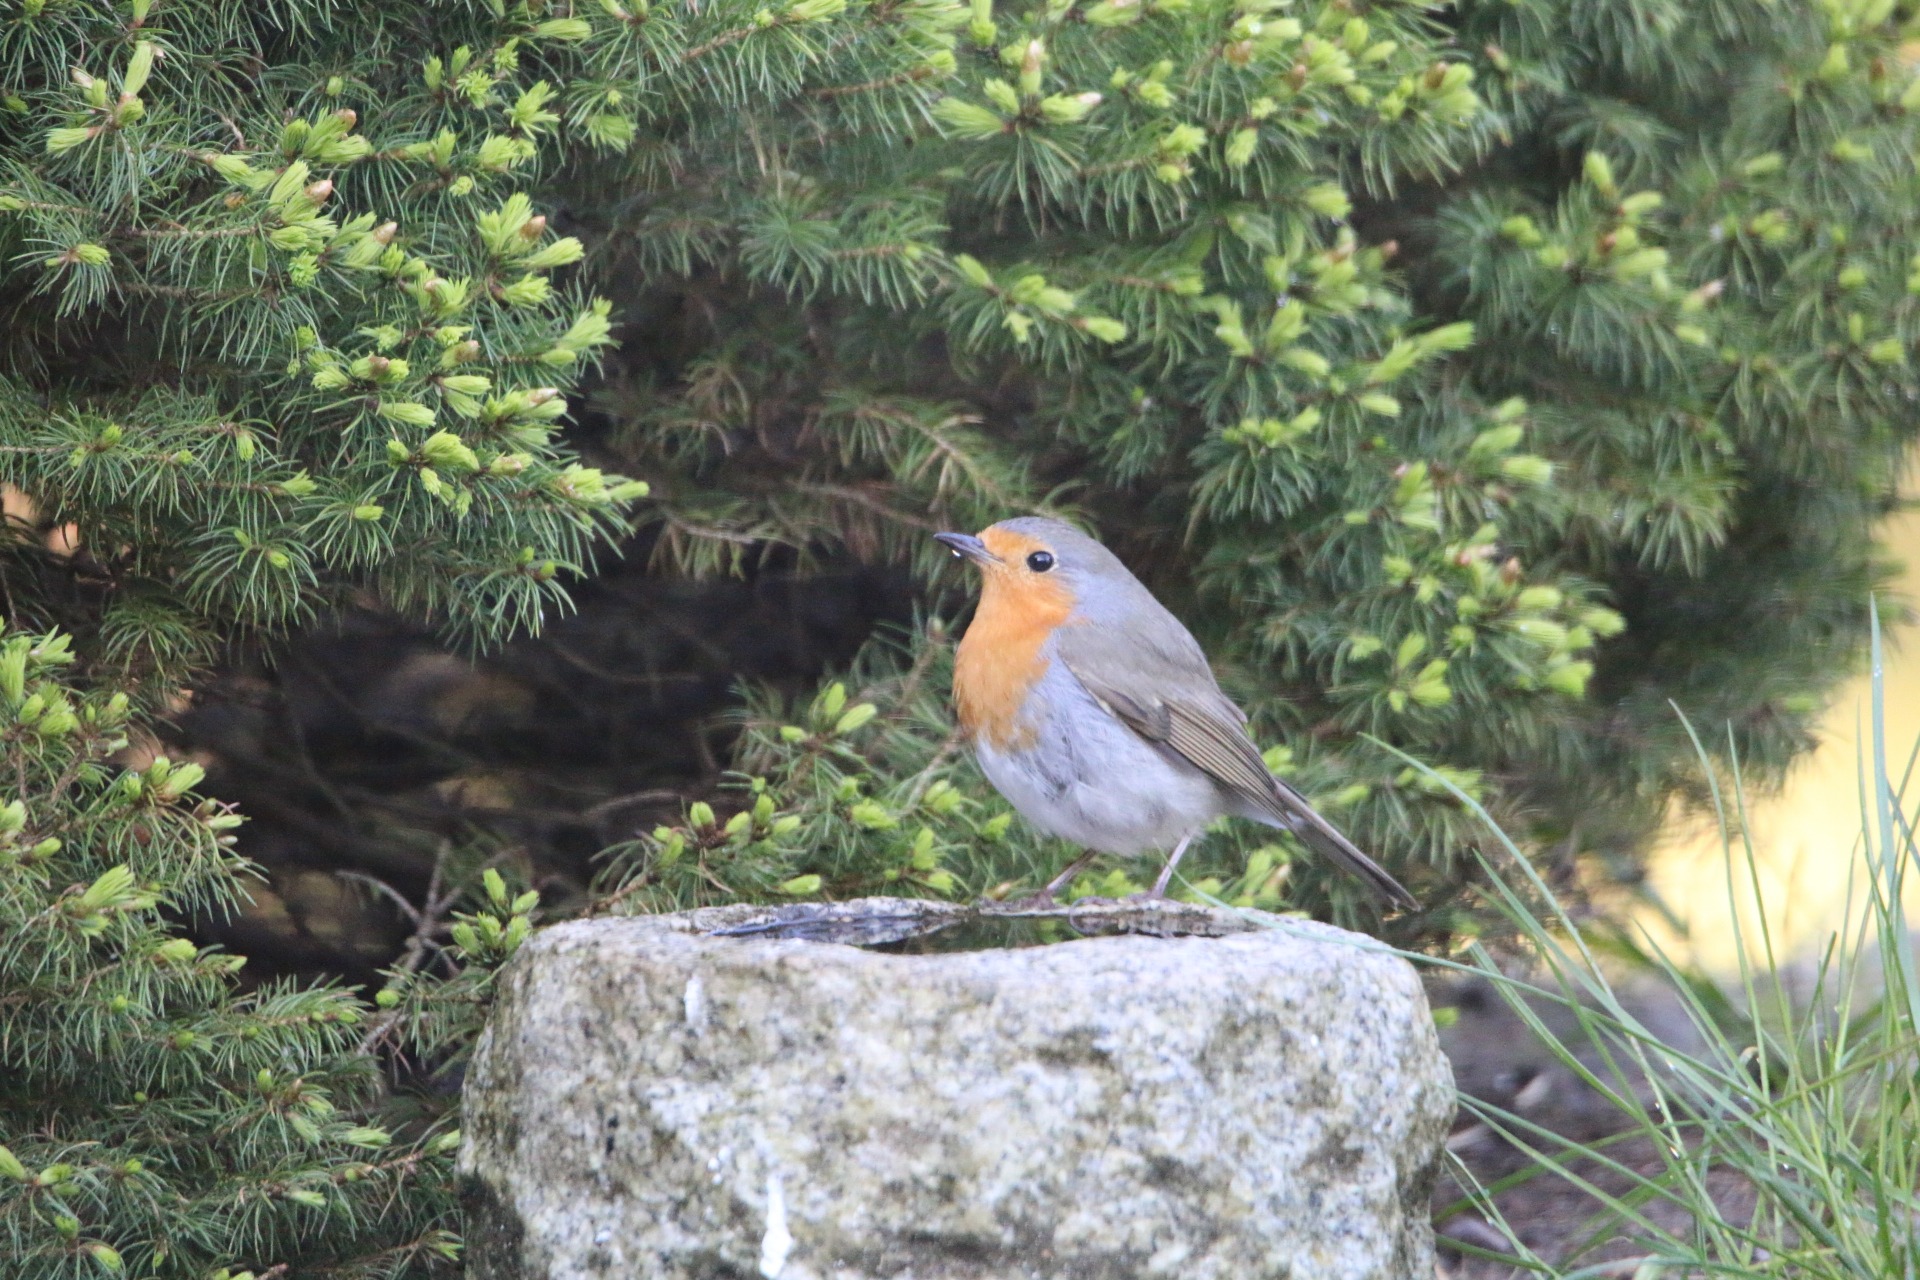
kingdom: Animalia
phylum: Chordata
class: Aves
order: Passeriformes
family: Muscicapidae
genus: Erithacus
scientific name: Erithacus rubecula
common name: Rødhals/rødkælk
